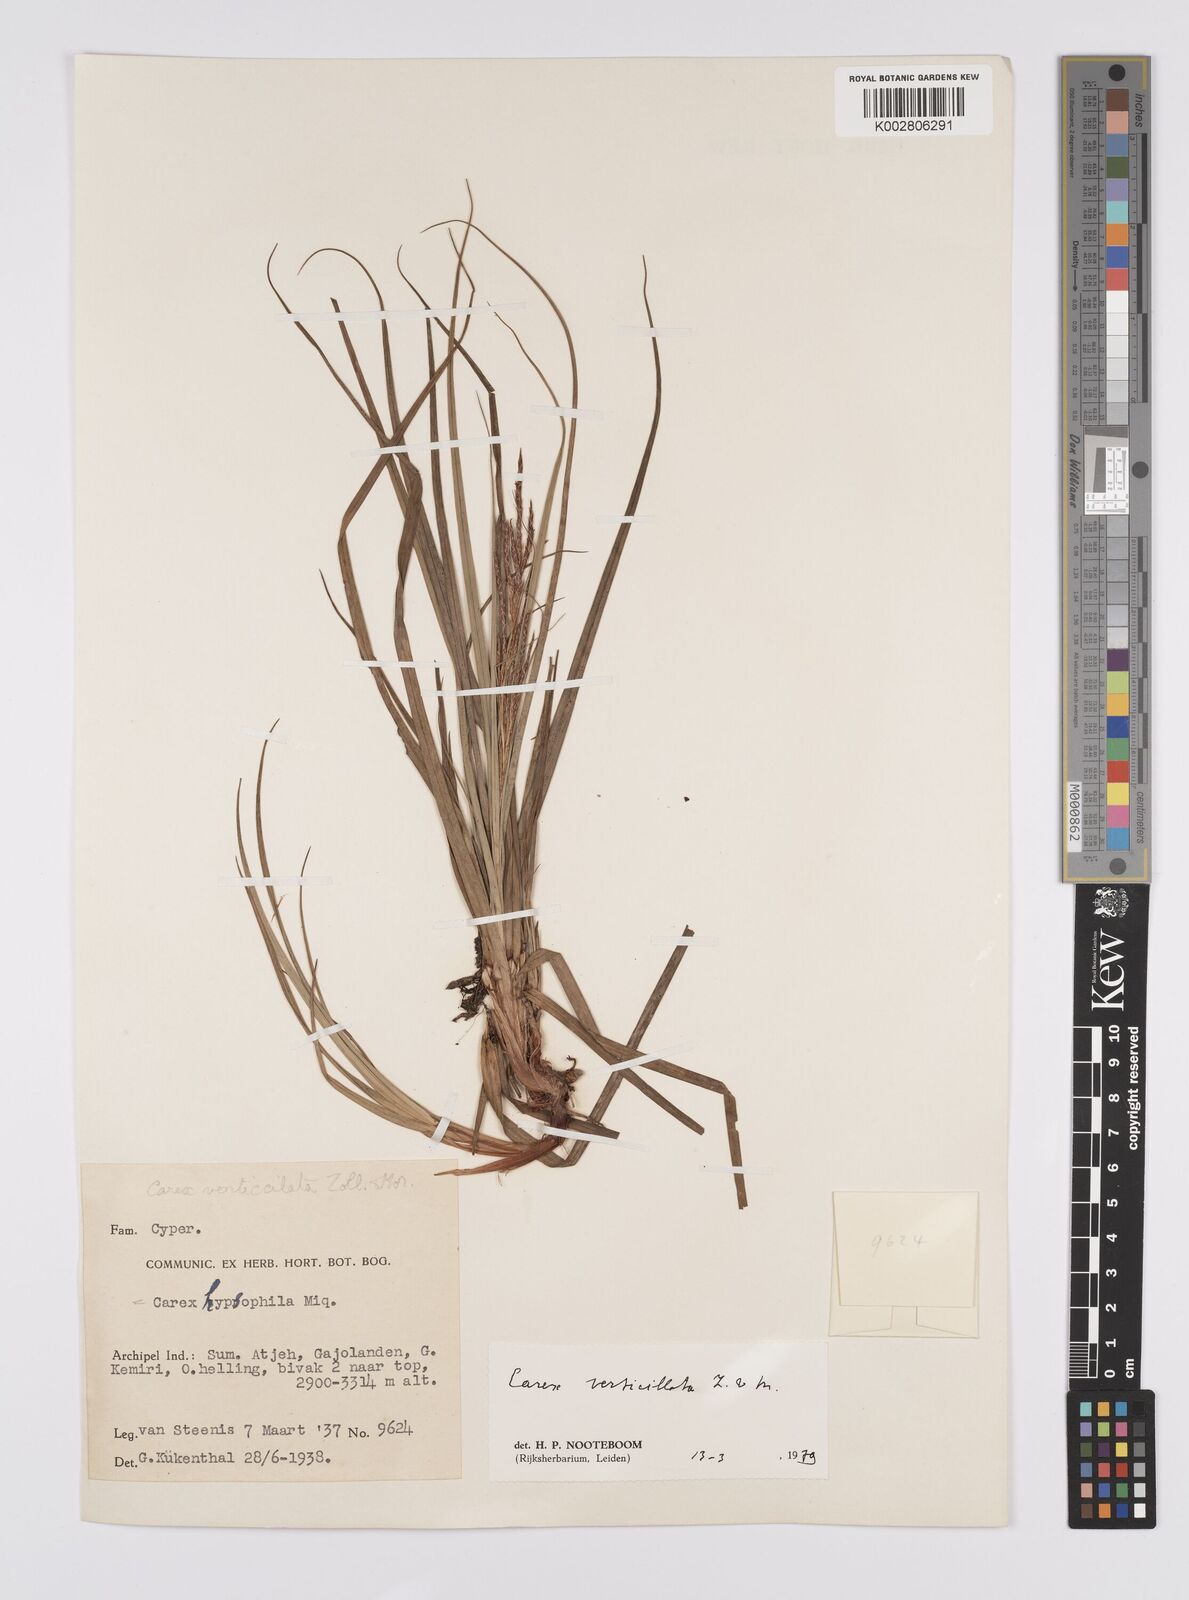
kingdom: Plantae
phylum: Tracheophyta
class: Liliopsida
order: Poales
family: Cyperaceae
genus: Carex
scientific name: Carex verticillata
